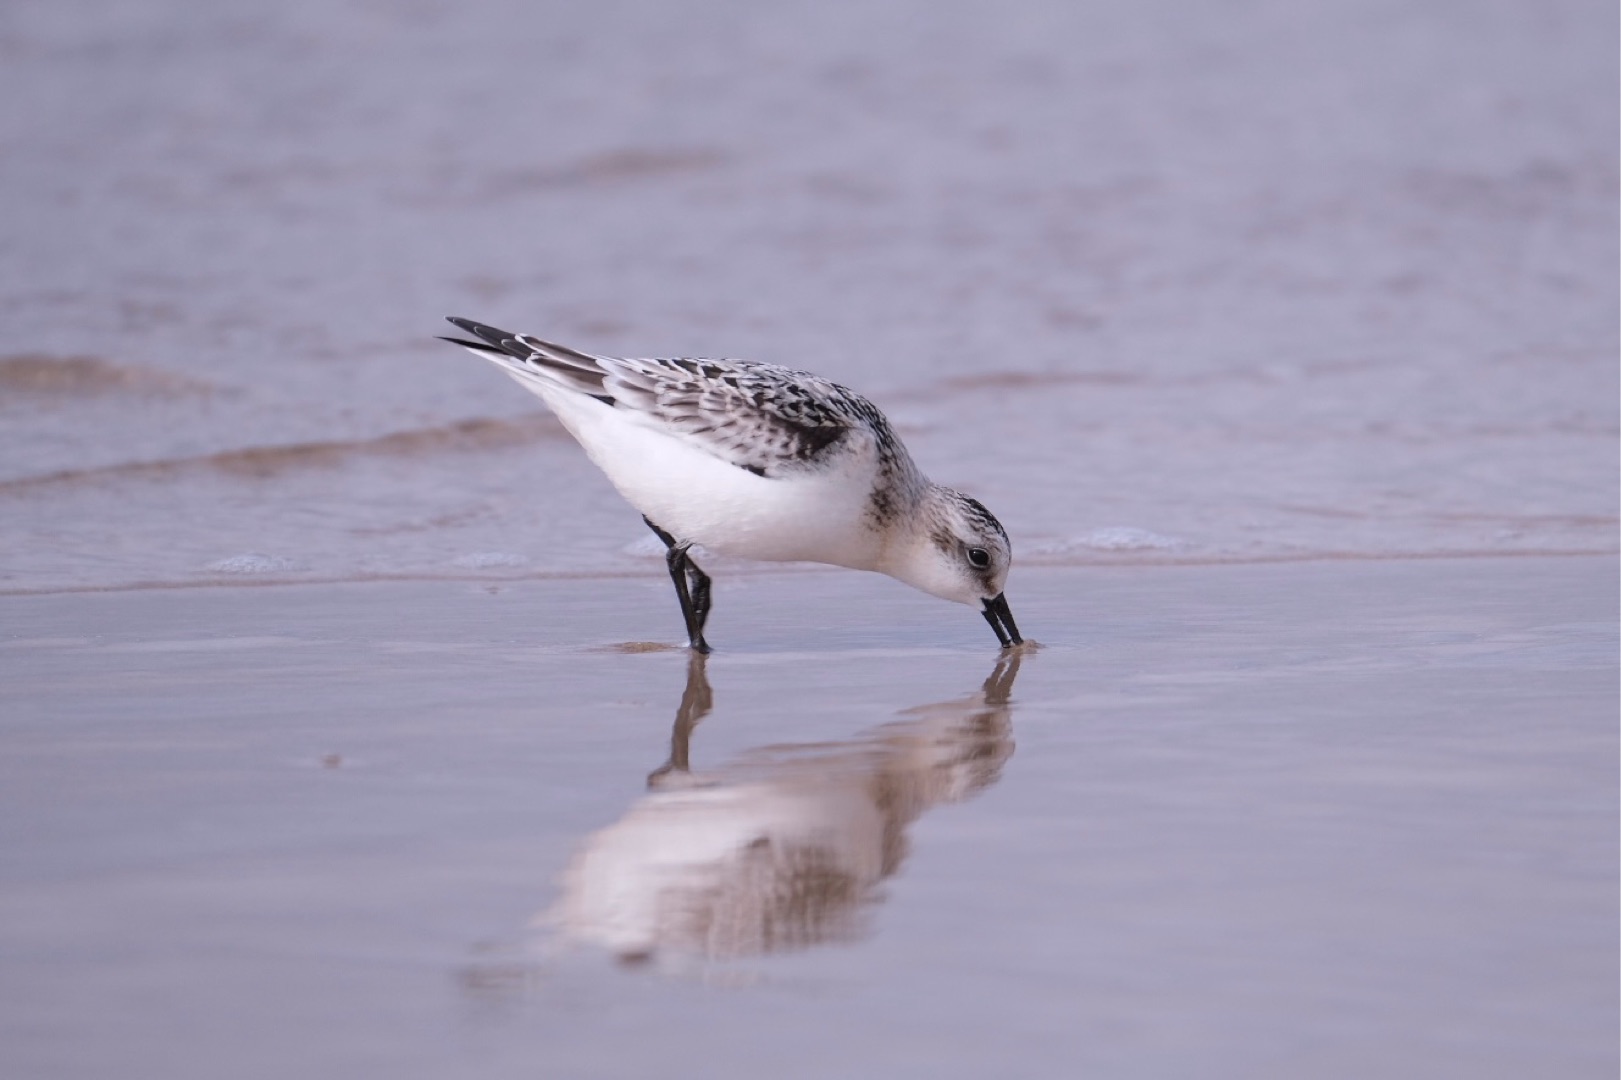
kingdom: Animalia
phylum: Chordata
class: Aves
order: Charadriiformes
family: Scolopacidae
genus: Calidris
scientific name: Calidris alba
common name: Sandløber
